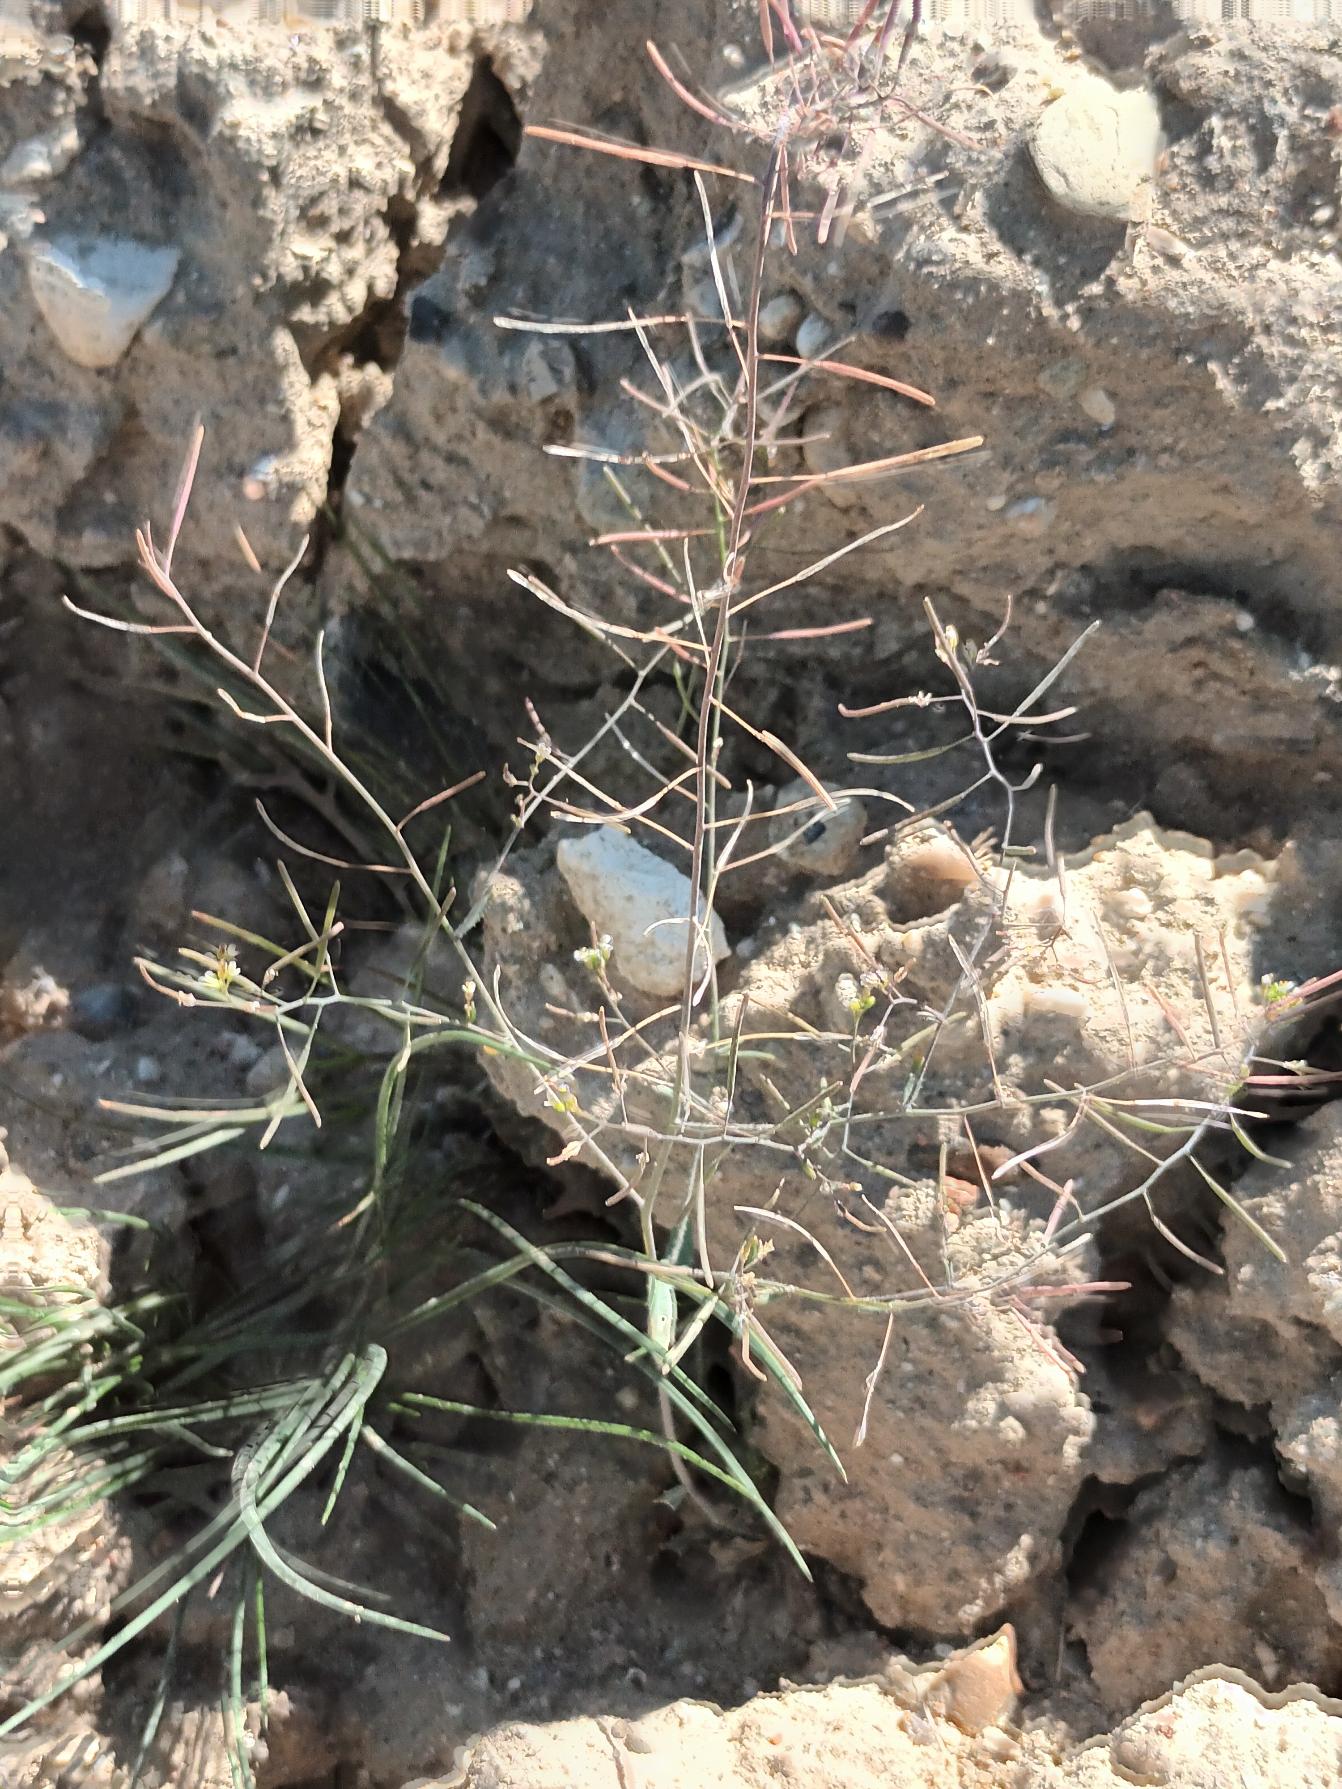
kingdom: Plantae
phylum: Tracheophyta
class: Magnoliopsida
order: Brassicales
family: Brassicaceae
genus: Arabidopsis
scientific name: Arabidopsis thaliana
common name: Almindelig gåsemad
